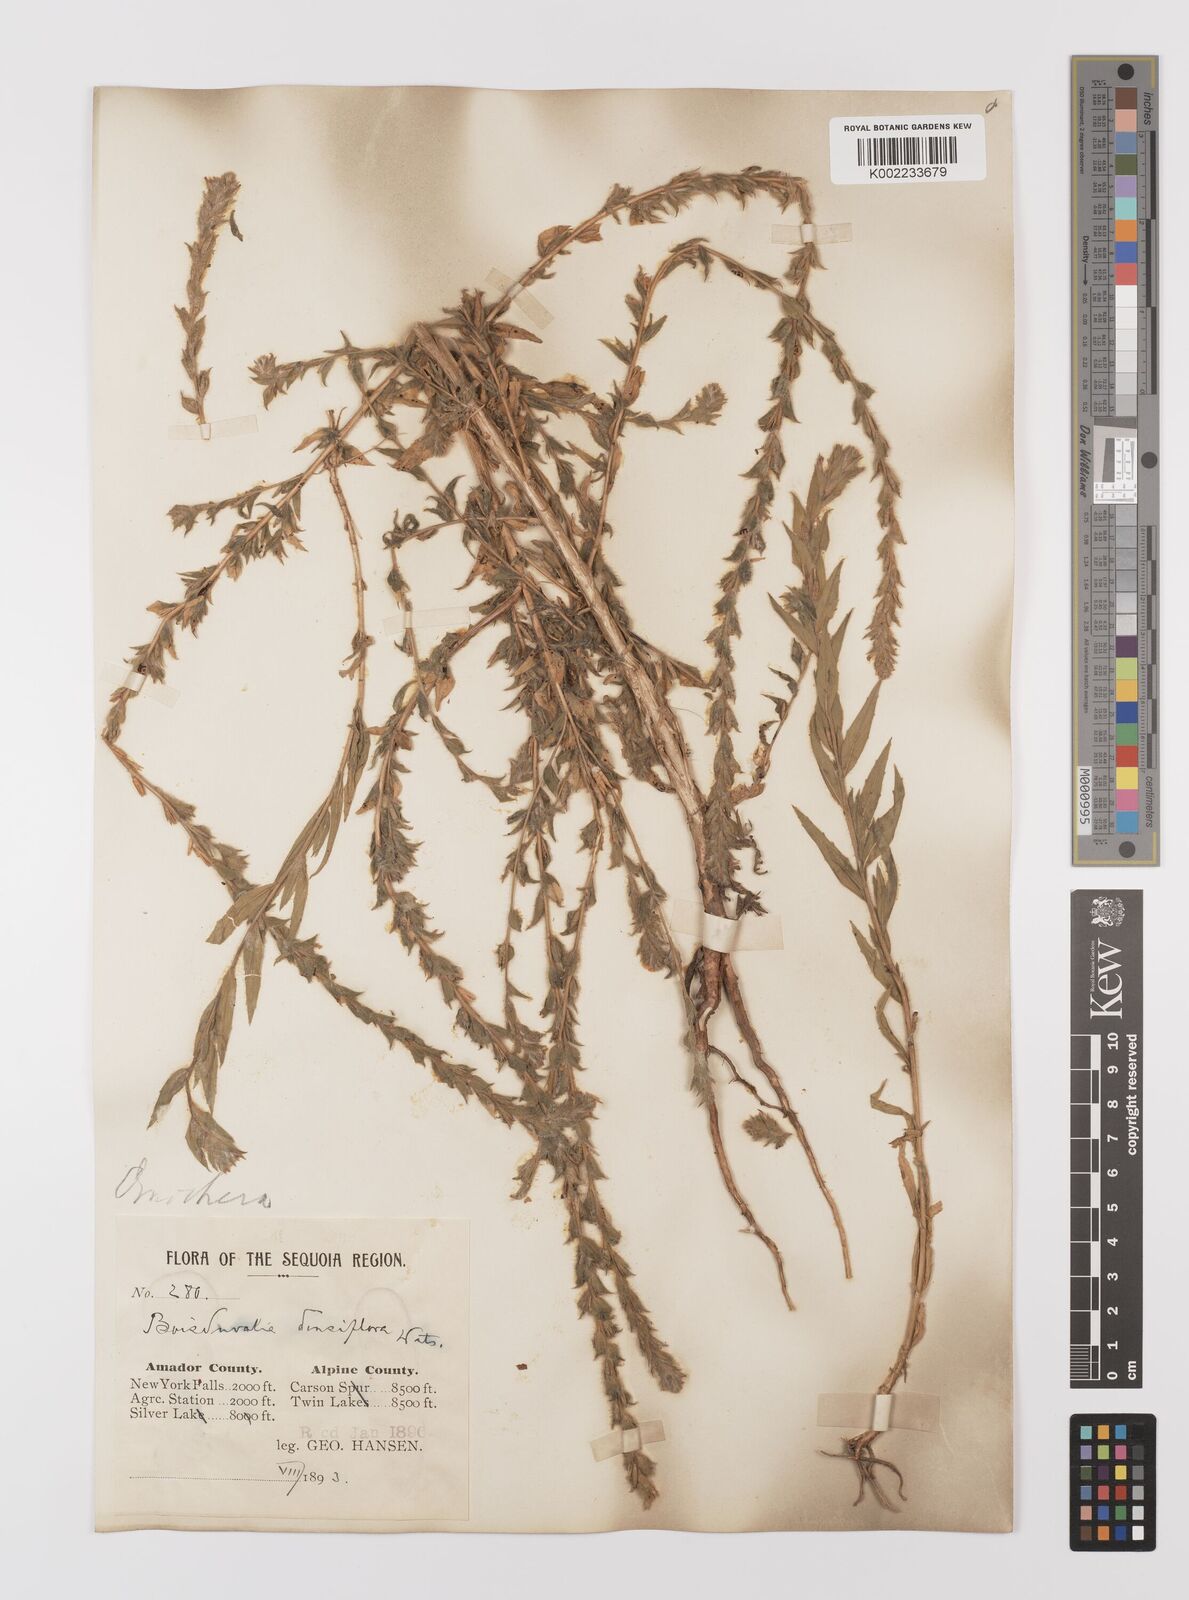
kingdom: Plantae
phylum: Tracheophyta
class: Magnoliopsida
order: Myrtales
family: Onagraceae
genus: Epilobium
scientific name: Epilobium densiflorum
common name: Dense spike-primrose
